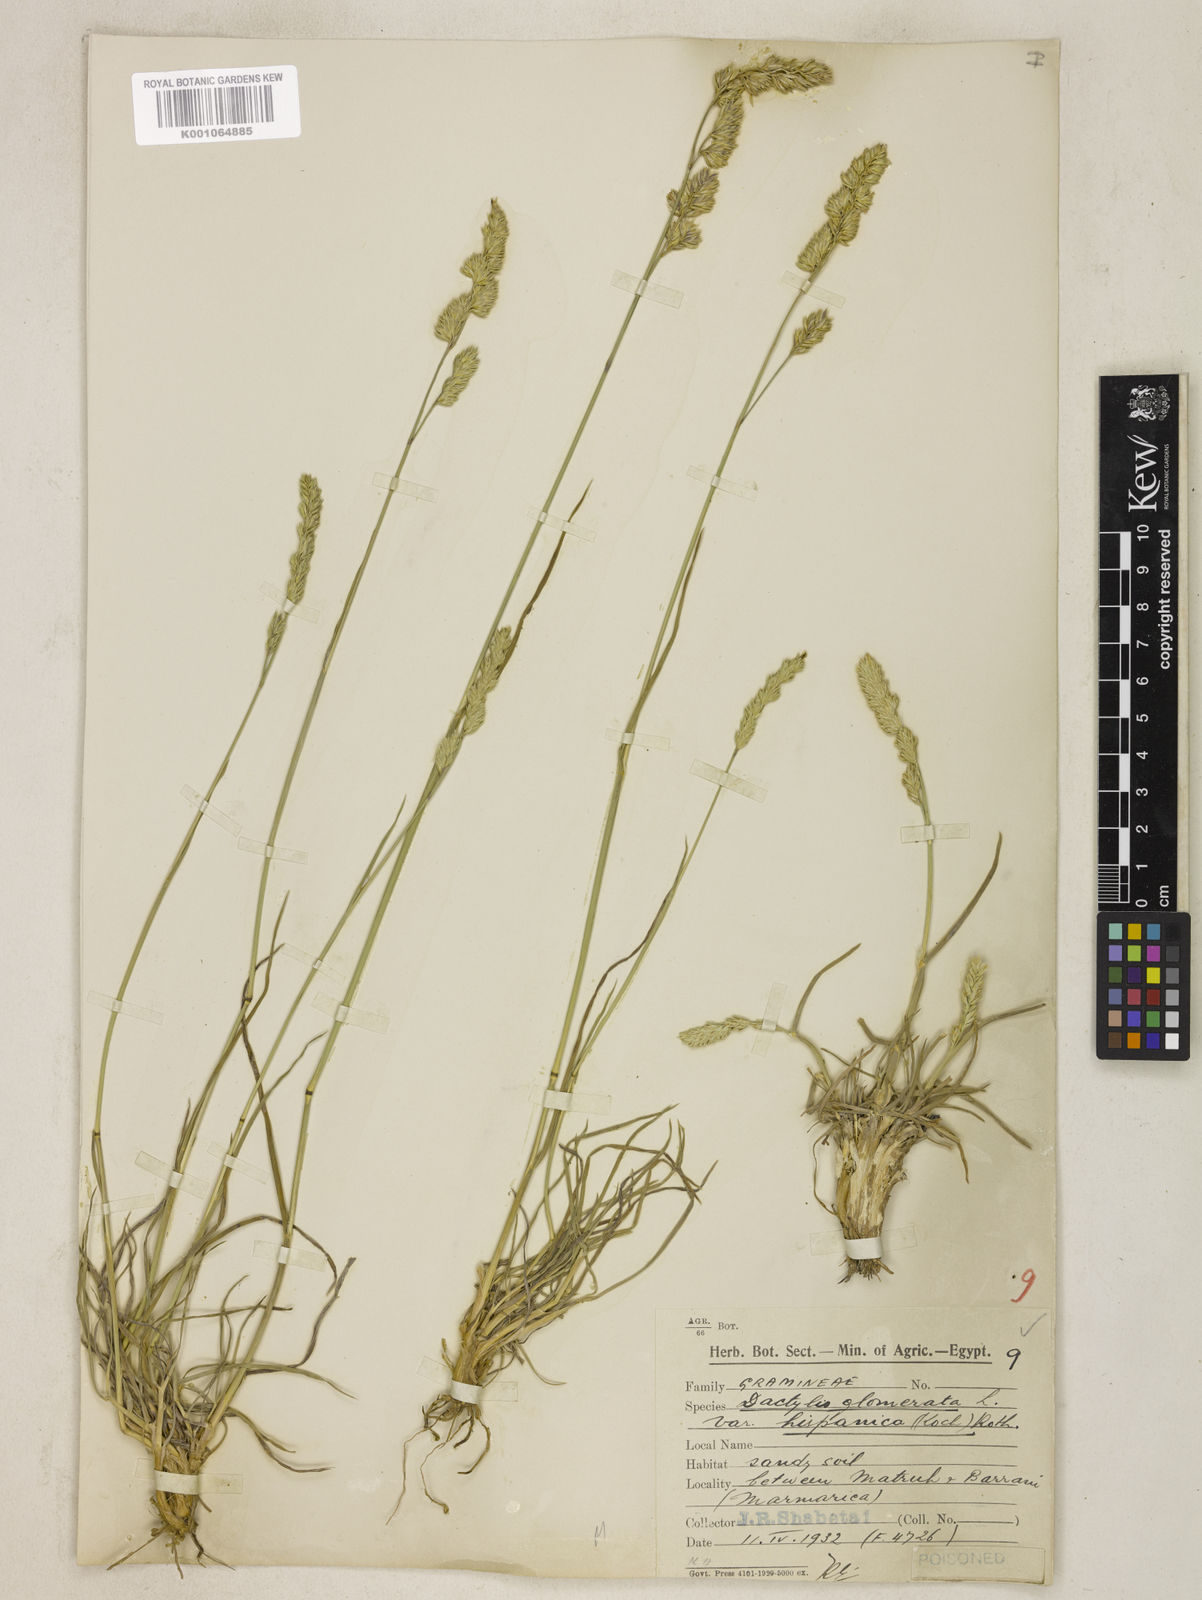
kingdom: Plantae
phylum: Tracheophyta
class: Liliopsida
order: Poales
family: Poaceae
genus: Dactylis
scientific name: Dactylis glomerata
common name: Orchardgrass
